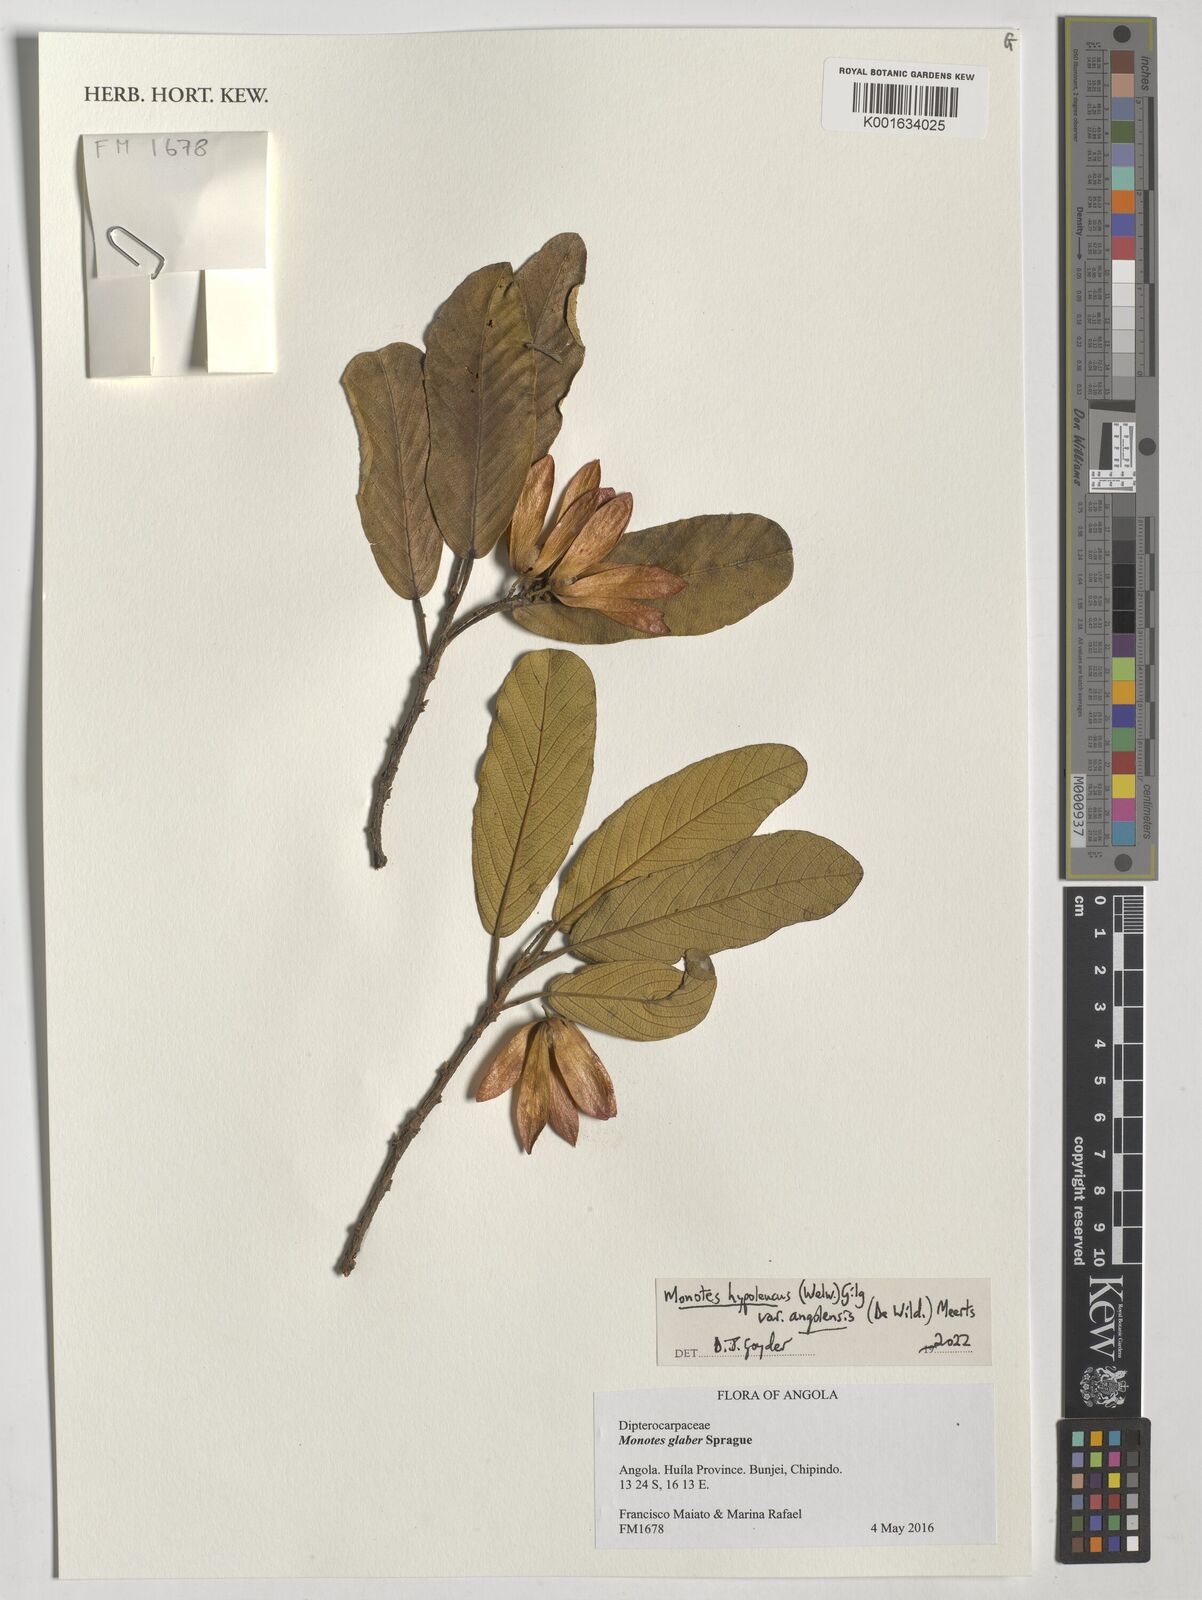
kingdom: Plantae
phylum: Tracheophyta
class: Magnoliopsida
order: Malvales
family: Dipterocarpaceae
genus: Monotes
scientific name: Monotes hypoleucus
